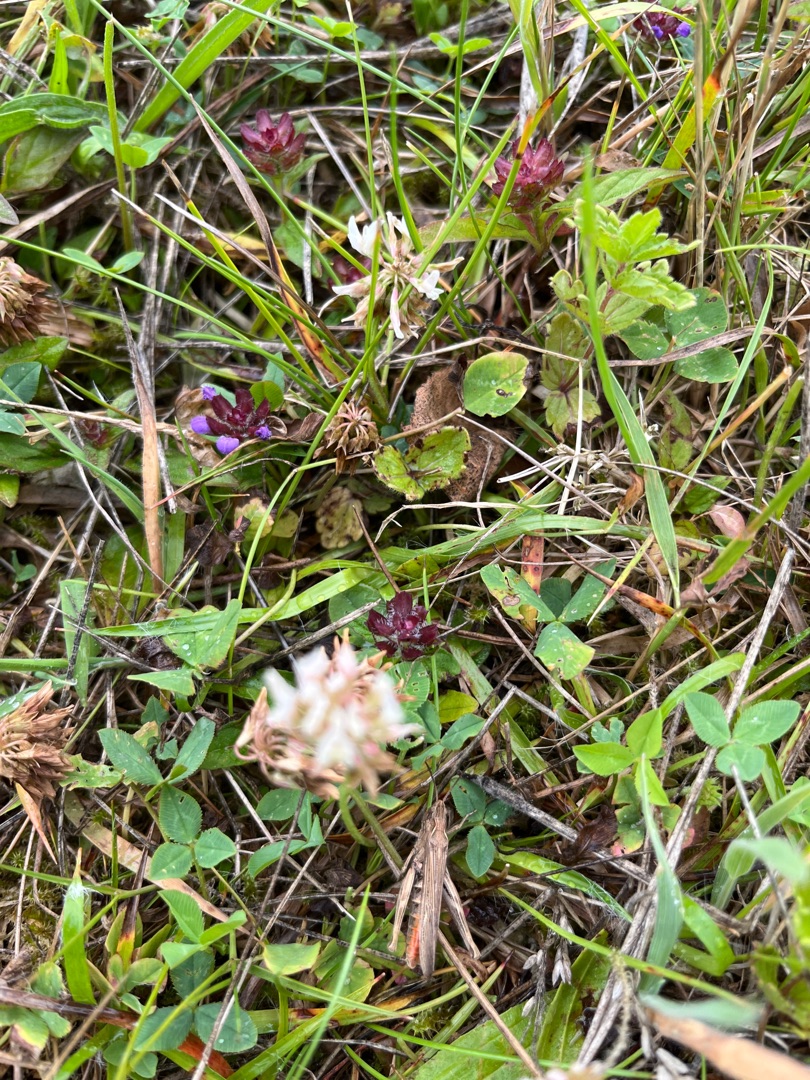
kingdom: Plantae
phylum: Tracheophyta
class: Magnoliopsida
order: Fabales
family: Fabaceae
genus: Trifolium
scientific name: Trifolium repens
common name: Hvid-kløver
